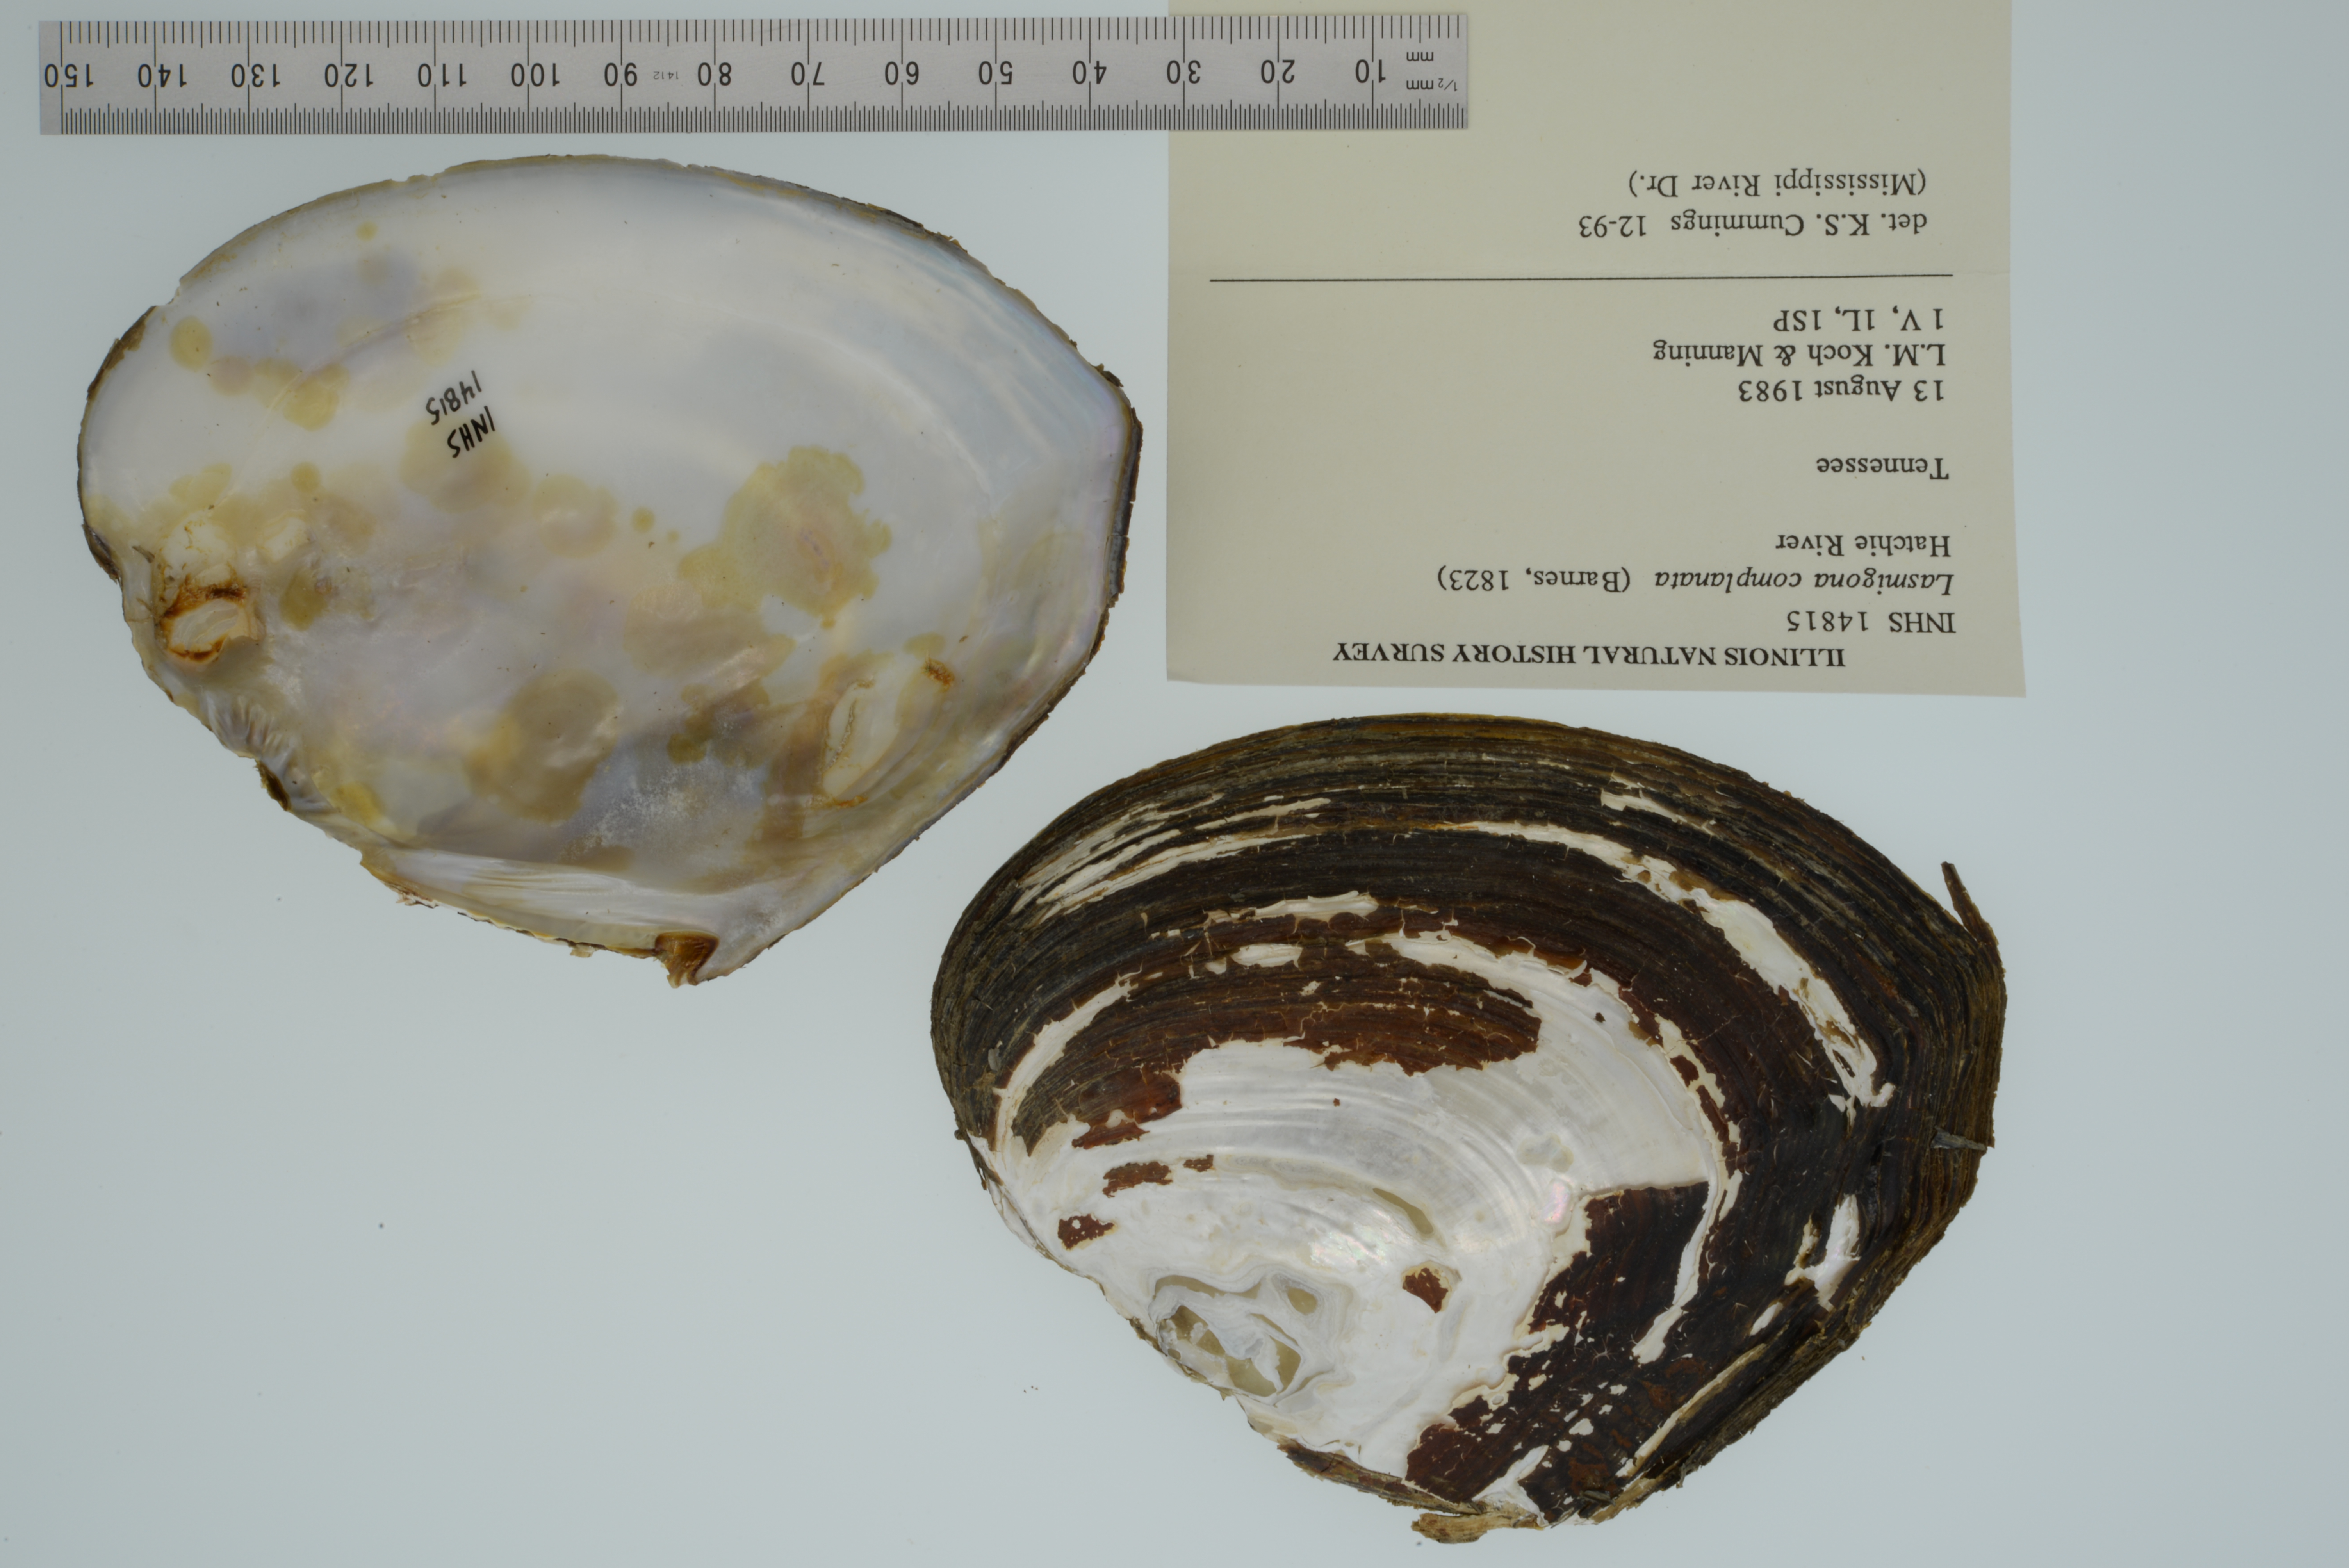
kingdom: Animalia
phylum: Mollusca
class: Bivalvia
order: Unionida
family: Unionidae
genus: Lasmigona
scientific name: Lasmigona complanata
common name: White heelsplitter
